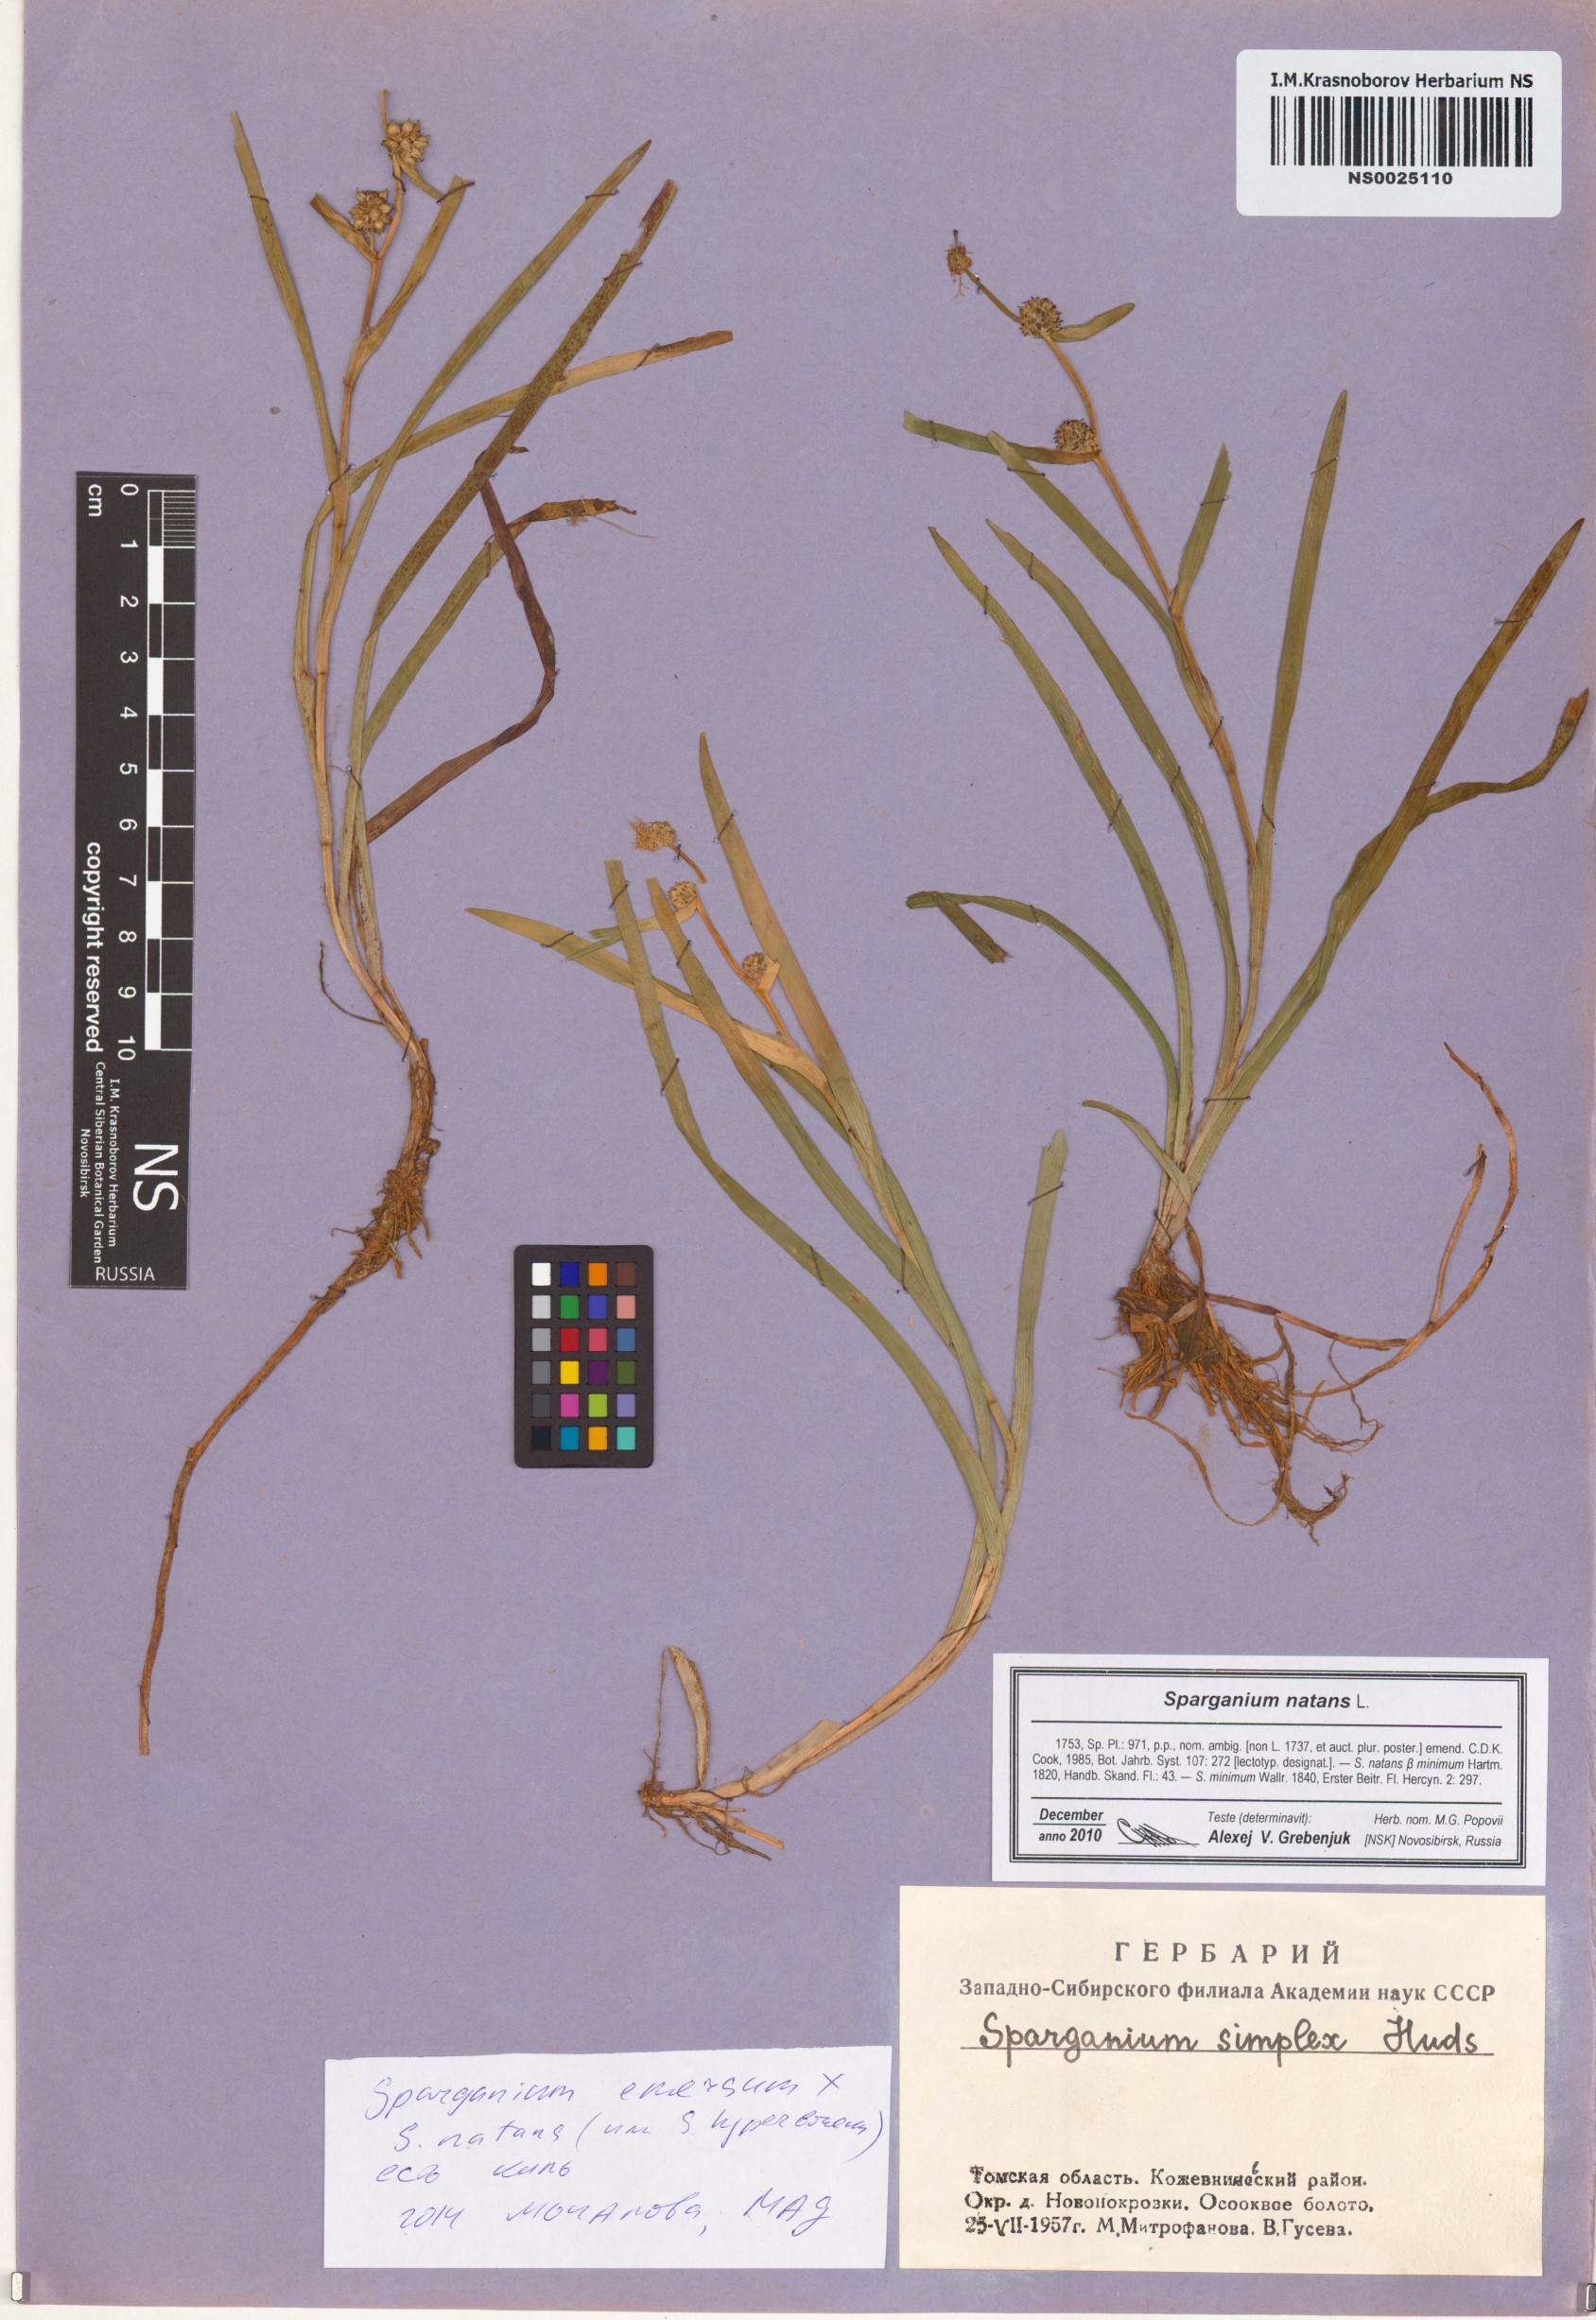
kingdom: Plantae
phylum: Tracheophyta
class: Liliopsida
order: Poales
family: Typhaceae
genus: Sparganium
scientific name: Sparganium natans
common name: Least bur-reed
